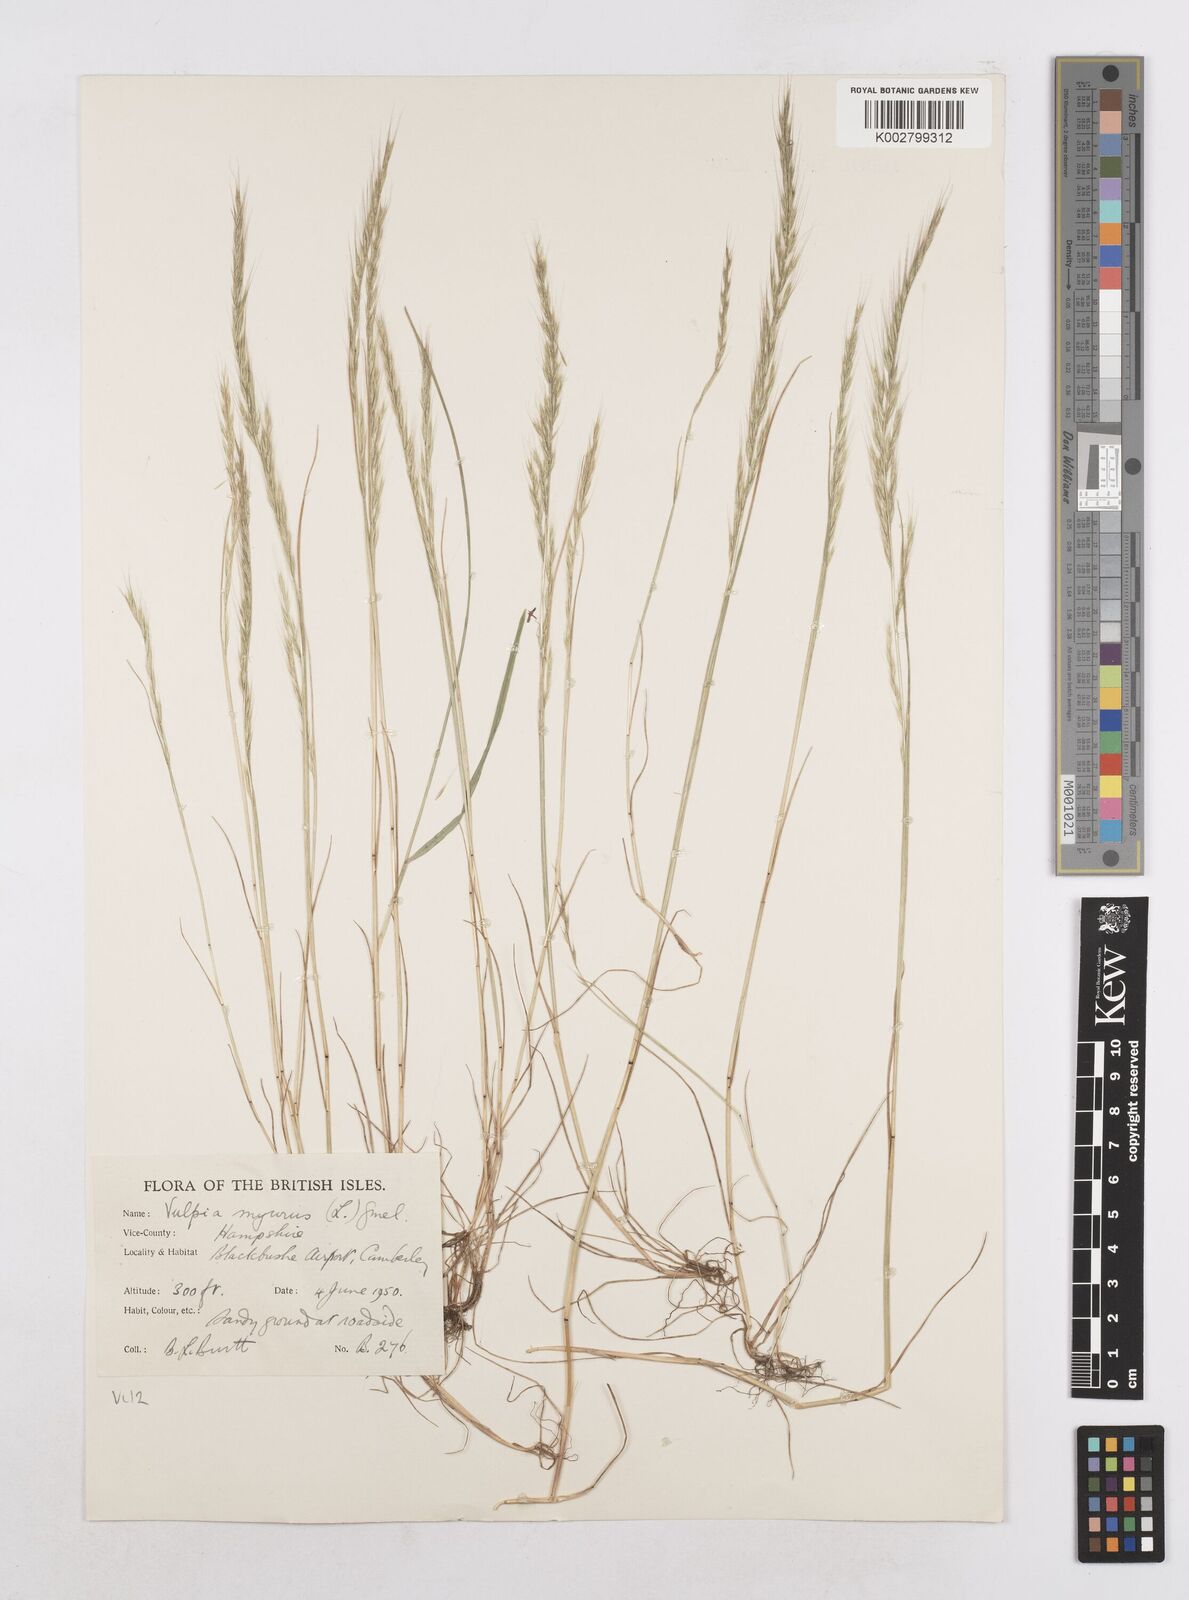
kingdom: Plantae
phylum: Tracheophyta
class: Liliopsida
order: Poales
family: Poaceae
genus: Festuca
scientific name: Festuca myuros
